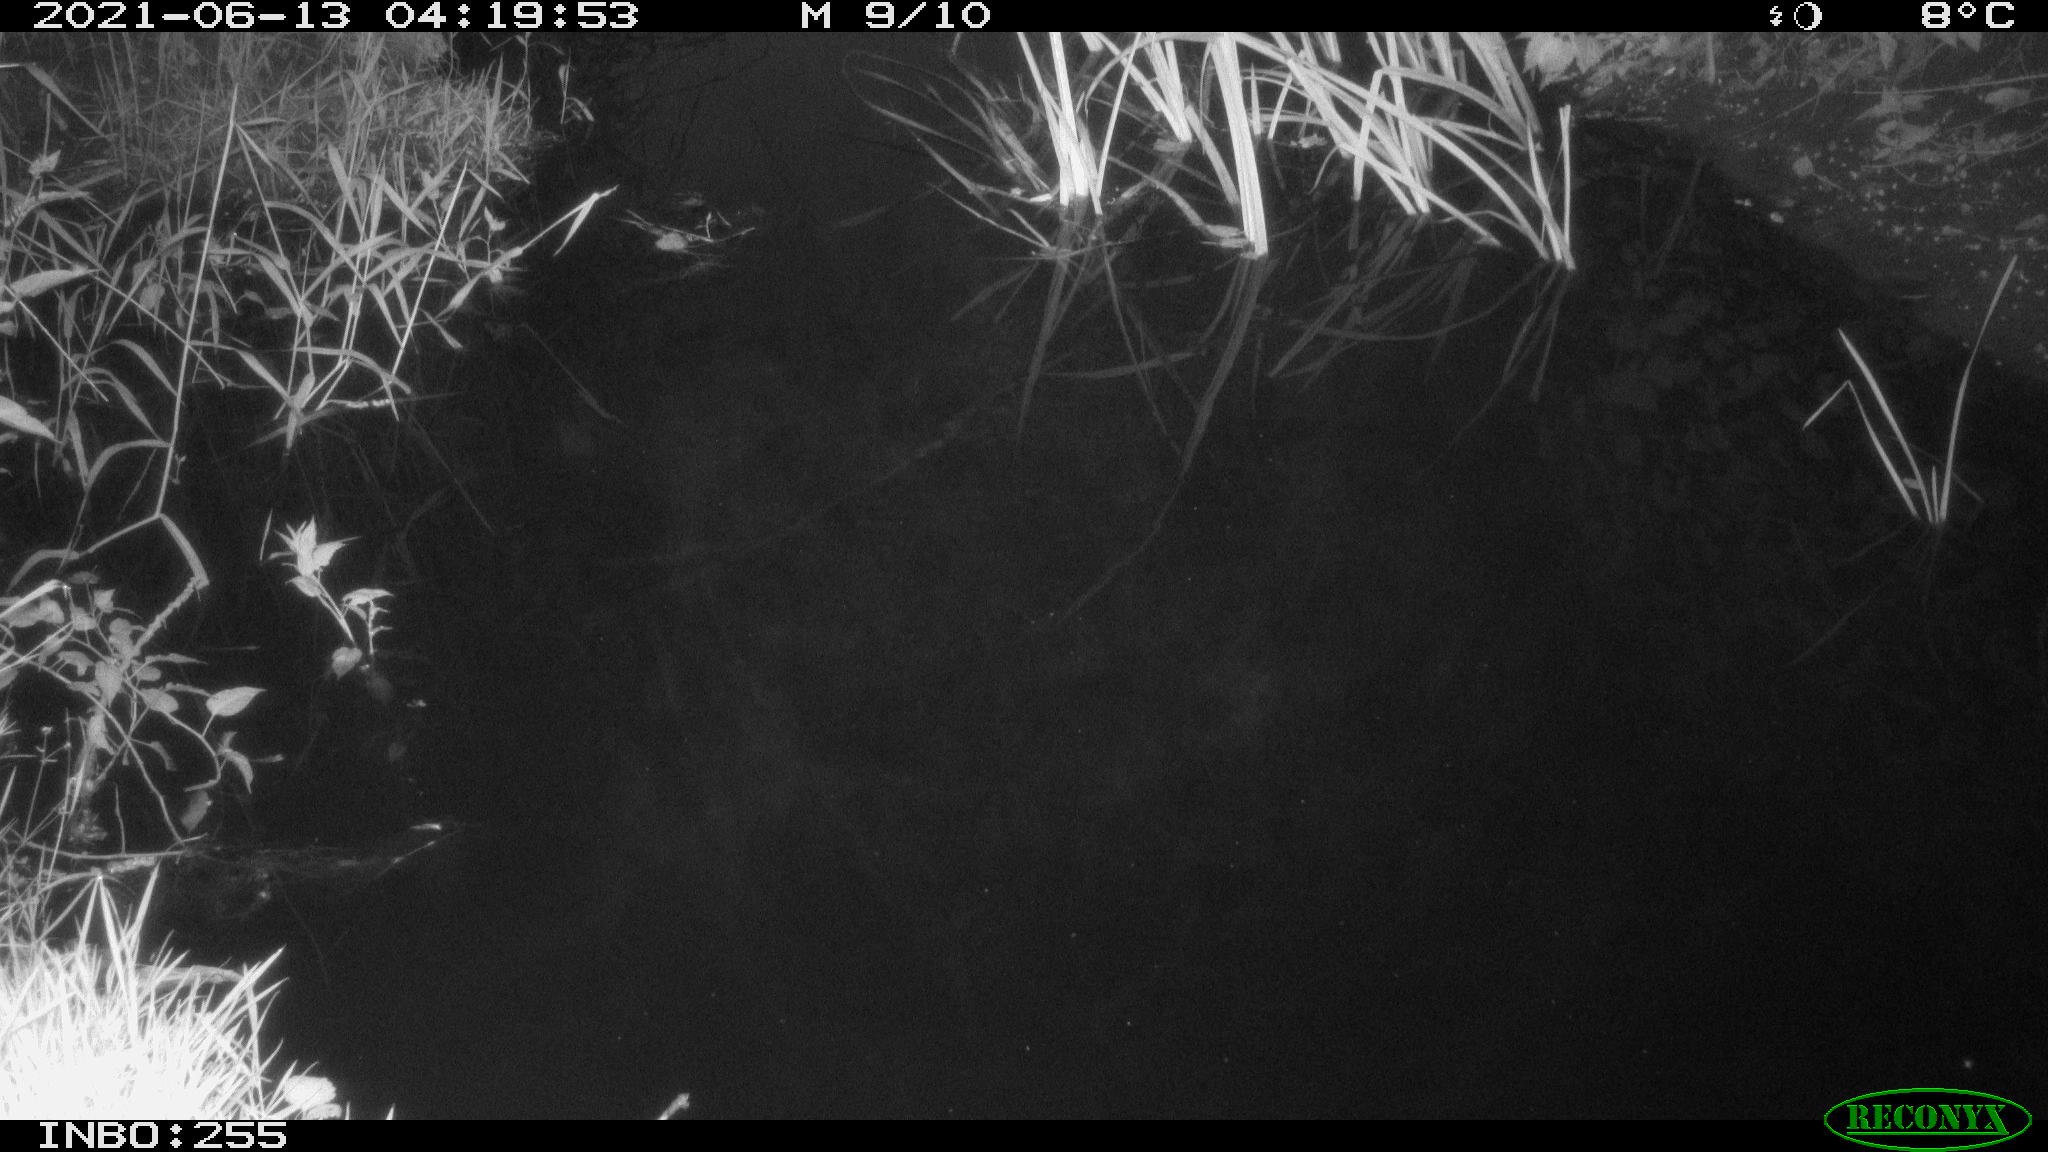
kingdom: Animalia
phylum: Chordata
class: Aves
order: Anseriformes
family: Anatidae
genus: Anas
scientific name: Anas
